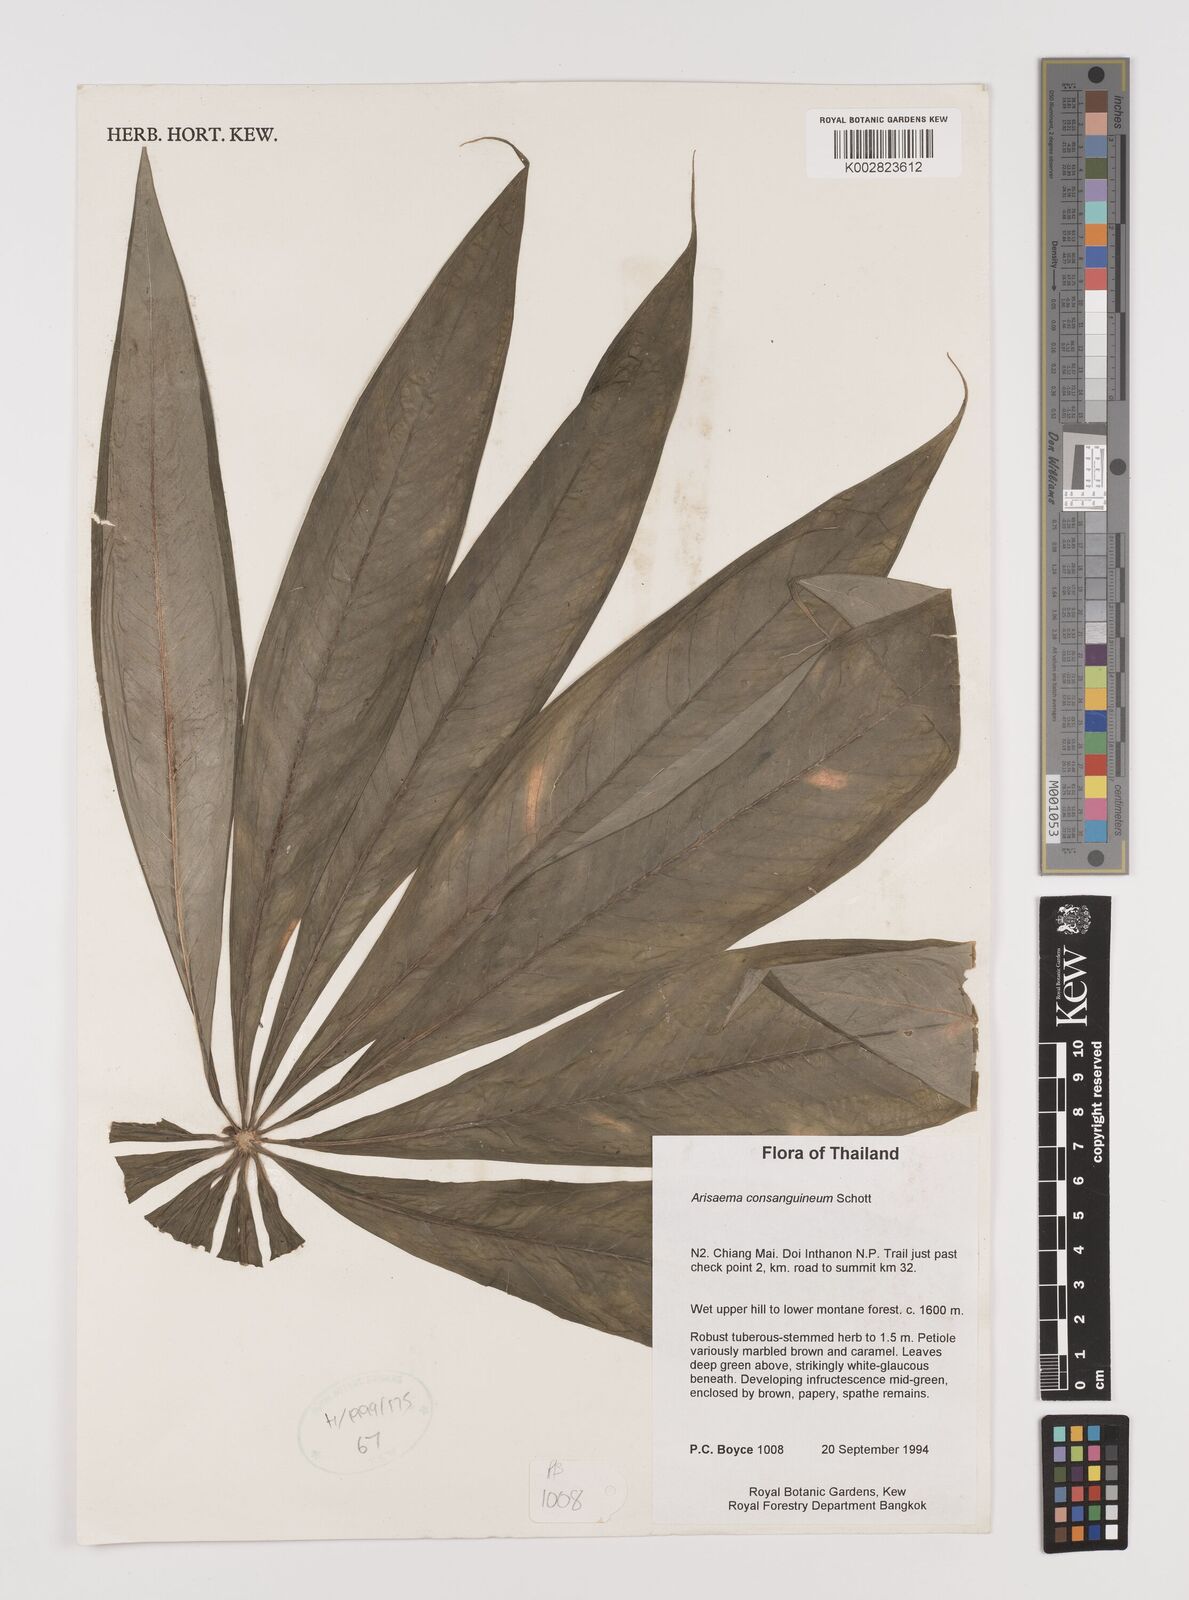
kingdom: Plantae
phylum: Tracheophyta
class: Liliopsida
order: Alismatales
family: Araceae
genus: Arisaema
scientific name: Arisaema consanguineum
